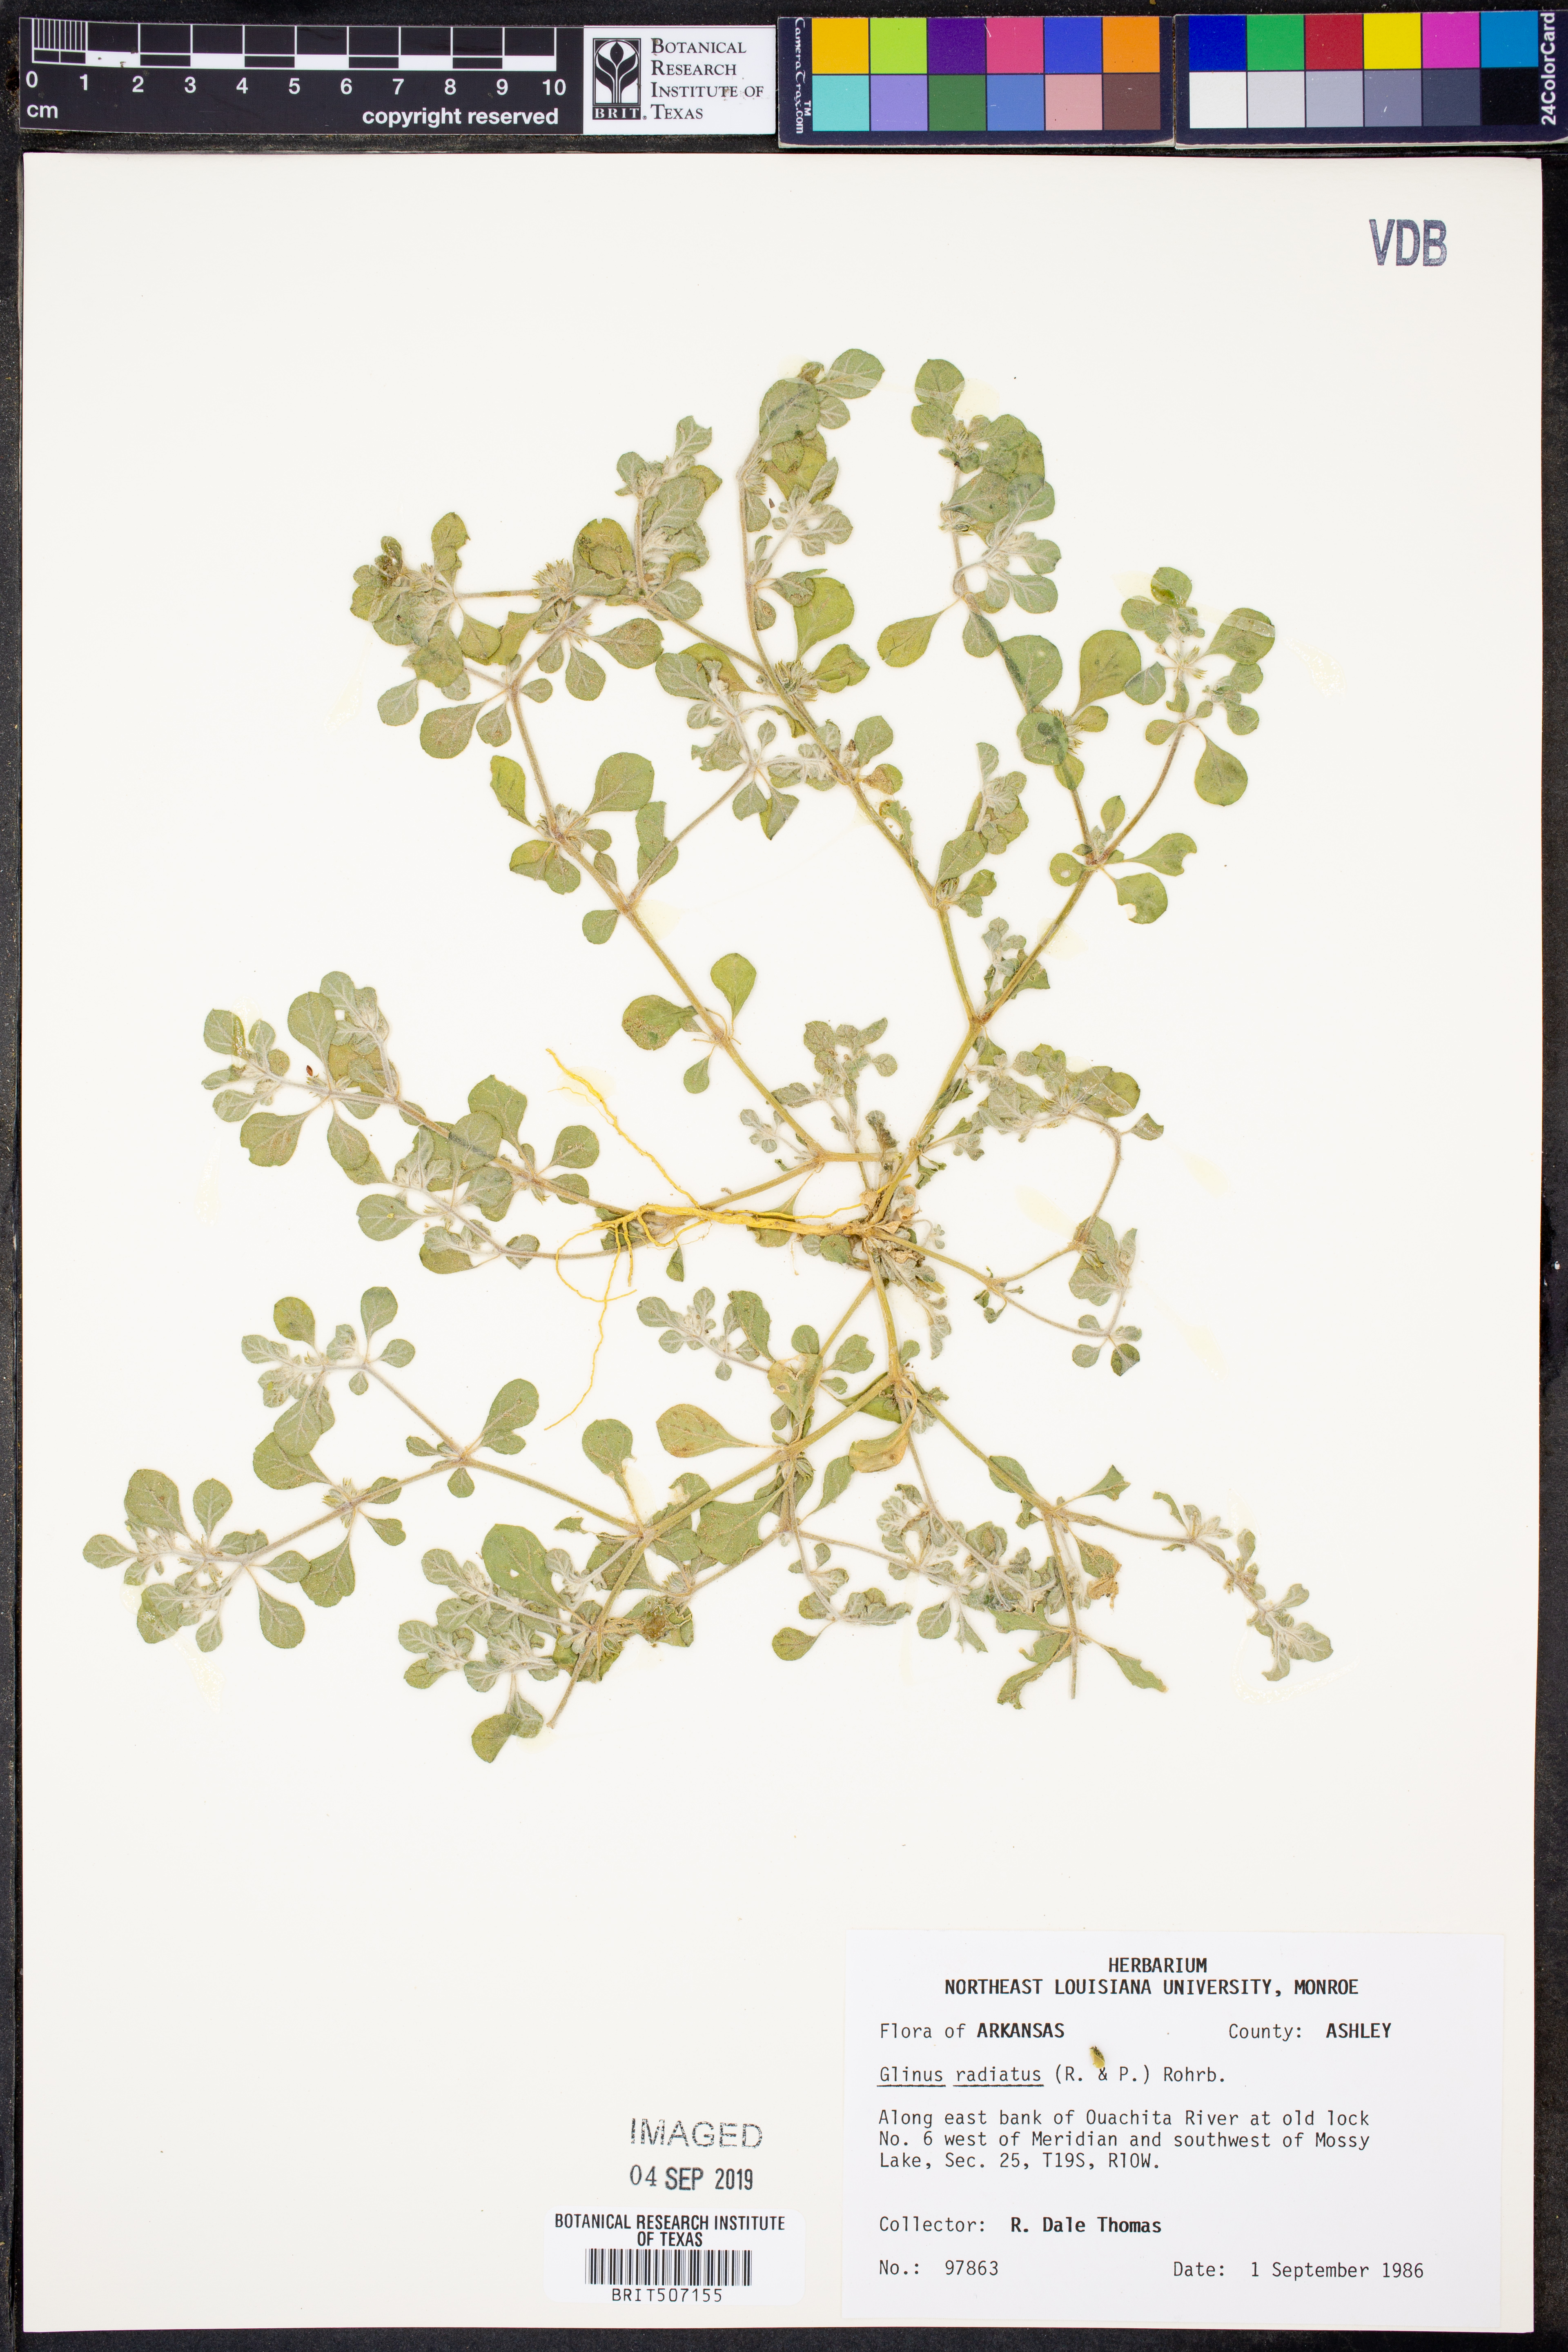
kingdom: Plantae
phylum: Tracheophyta
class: Magnoliopsida
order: Caryophyllales
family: Molluginaceae
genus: Glinus
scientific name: Glinus radiatus
